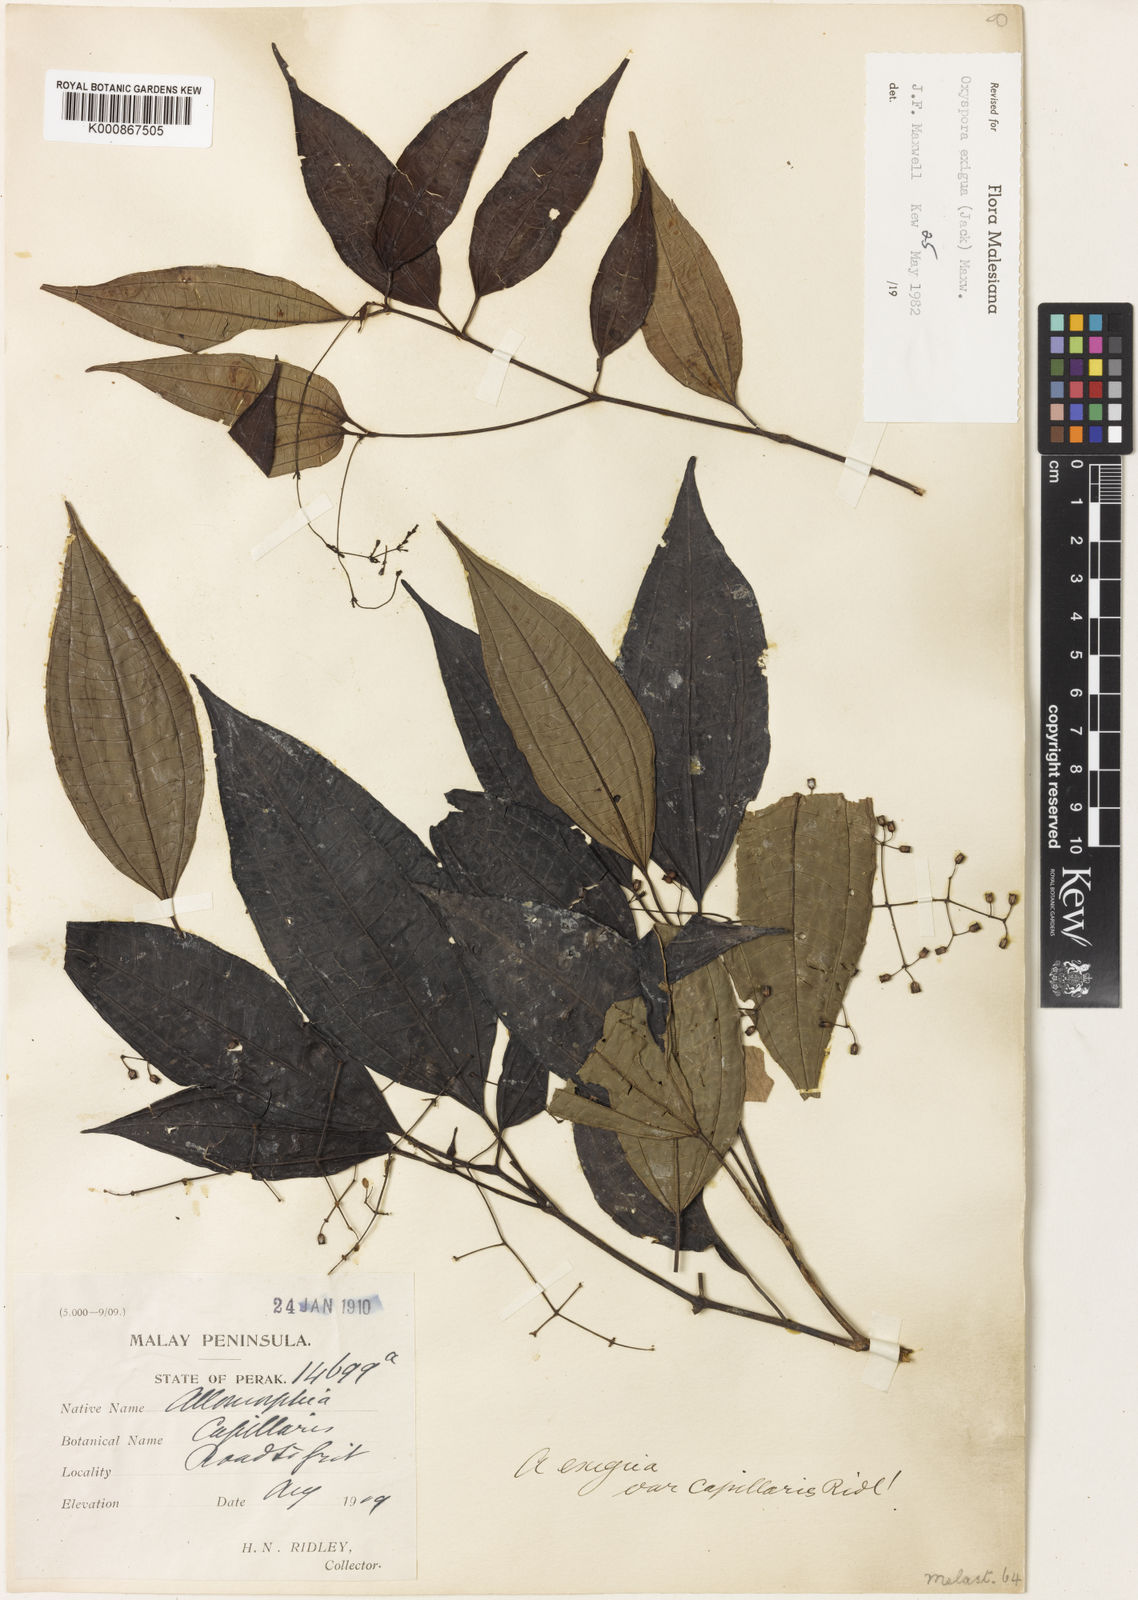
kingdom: Plantae
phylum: Tracheophyta
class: Magnoliopsida
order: Myrtales
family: Melastomataceae
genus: Allomorphia
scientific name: Allomorphia exigua
